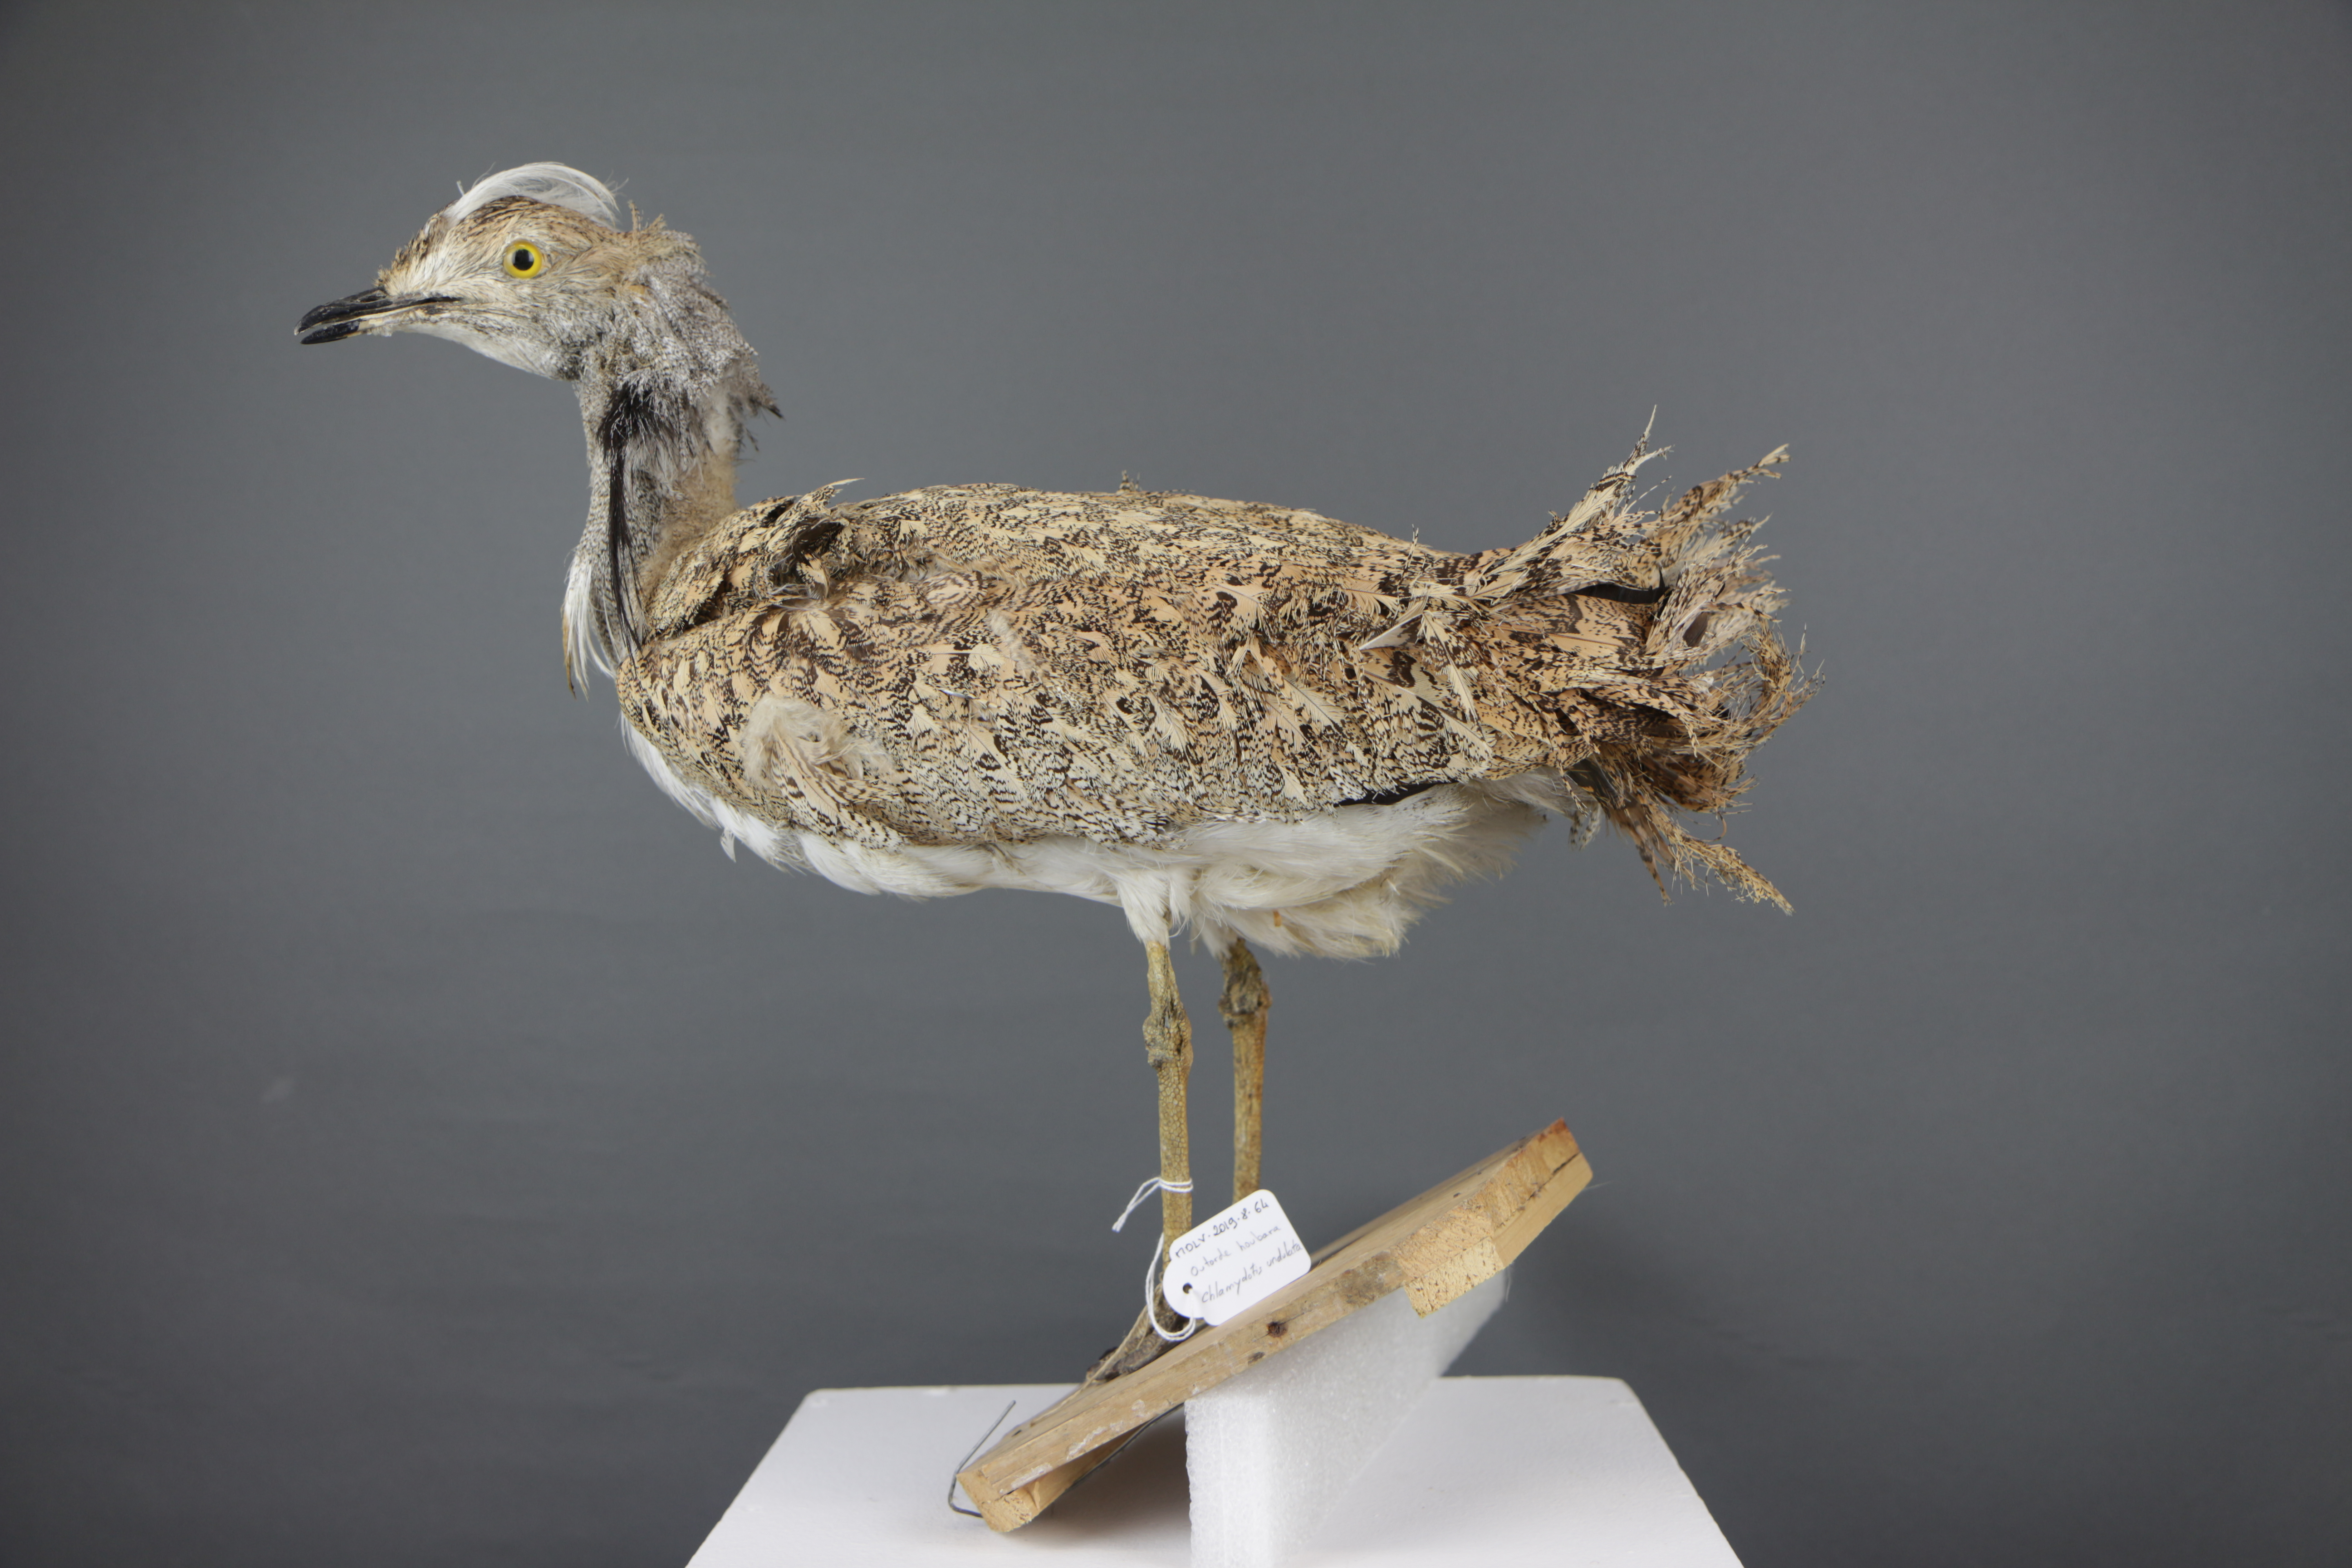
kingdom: Animalia
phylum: Chordata
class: Aves
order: Otidiformes
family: Otididae
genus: Chlamydotis
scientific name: Chlamydotis undulata
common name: Houbara bustard
